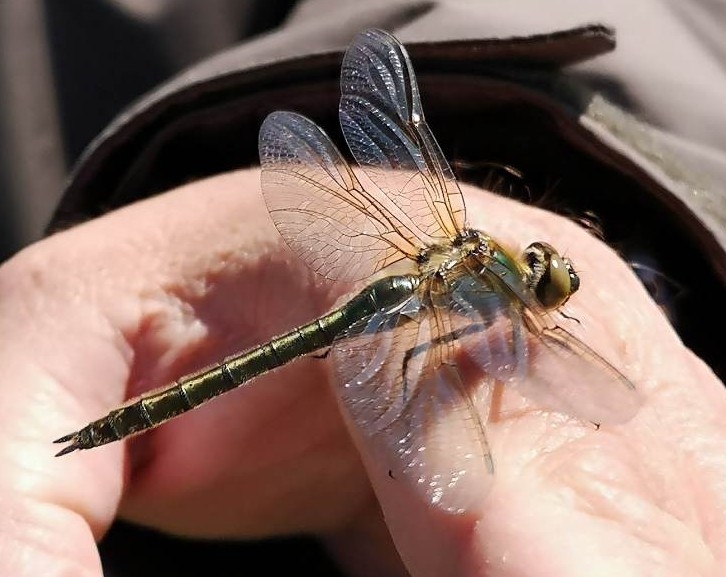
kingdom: Animalia
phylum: Arthropoda
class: Insecta
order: Odonata
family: Corduliidae
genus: Cordulia
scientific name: Cordulia aenea
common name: Grøn smaragdlibel
